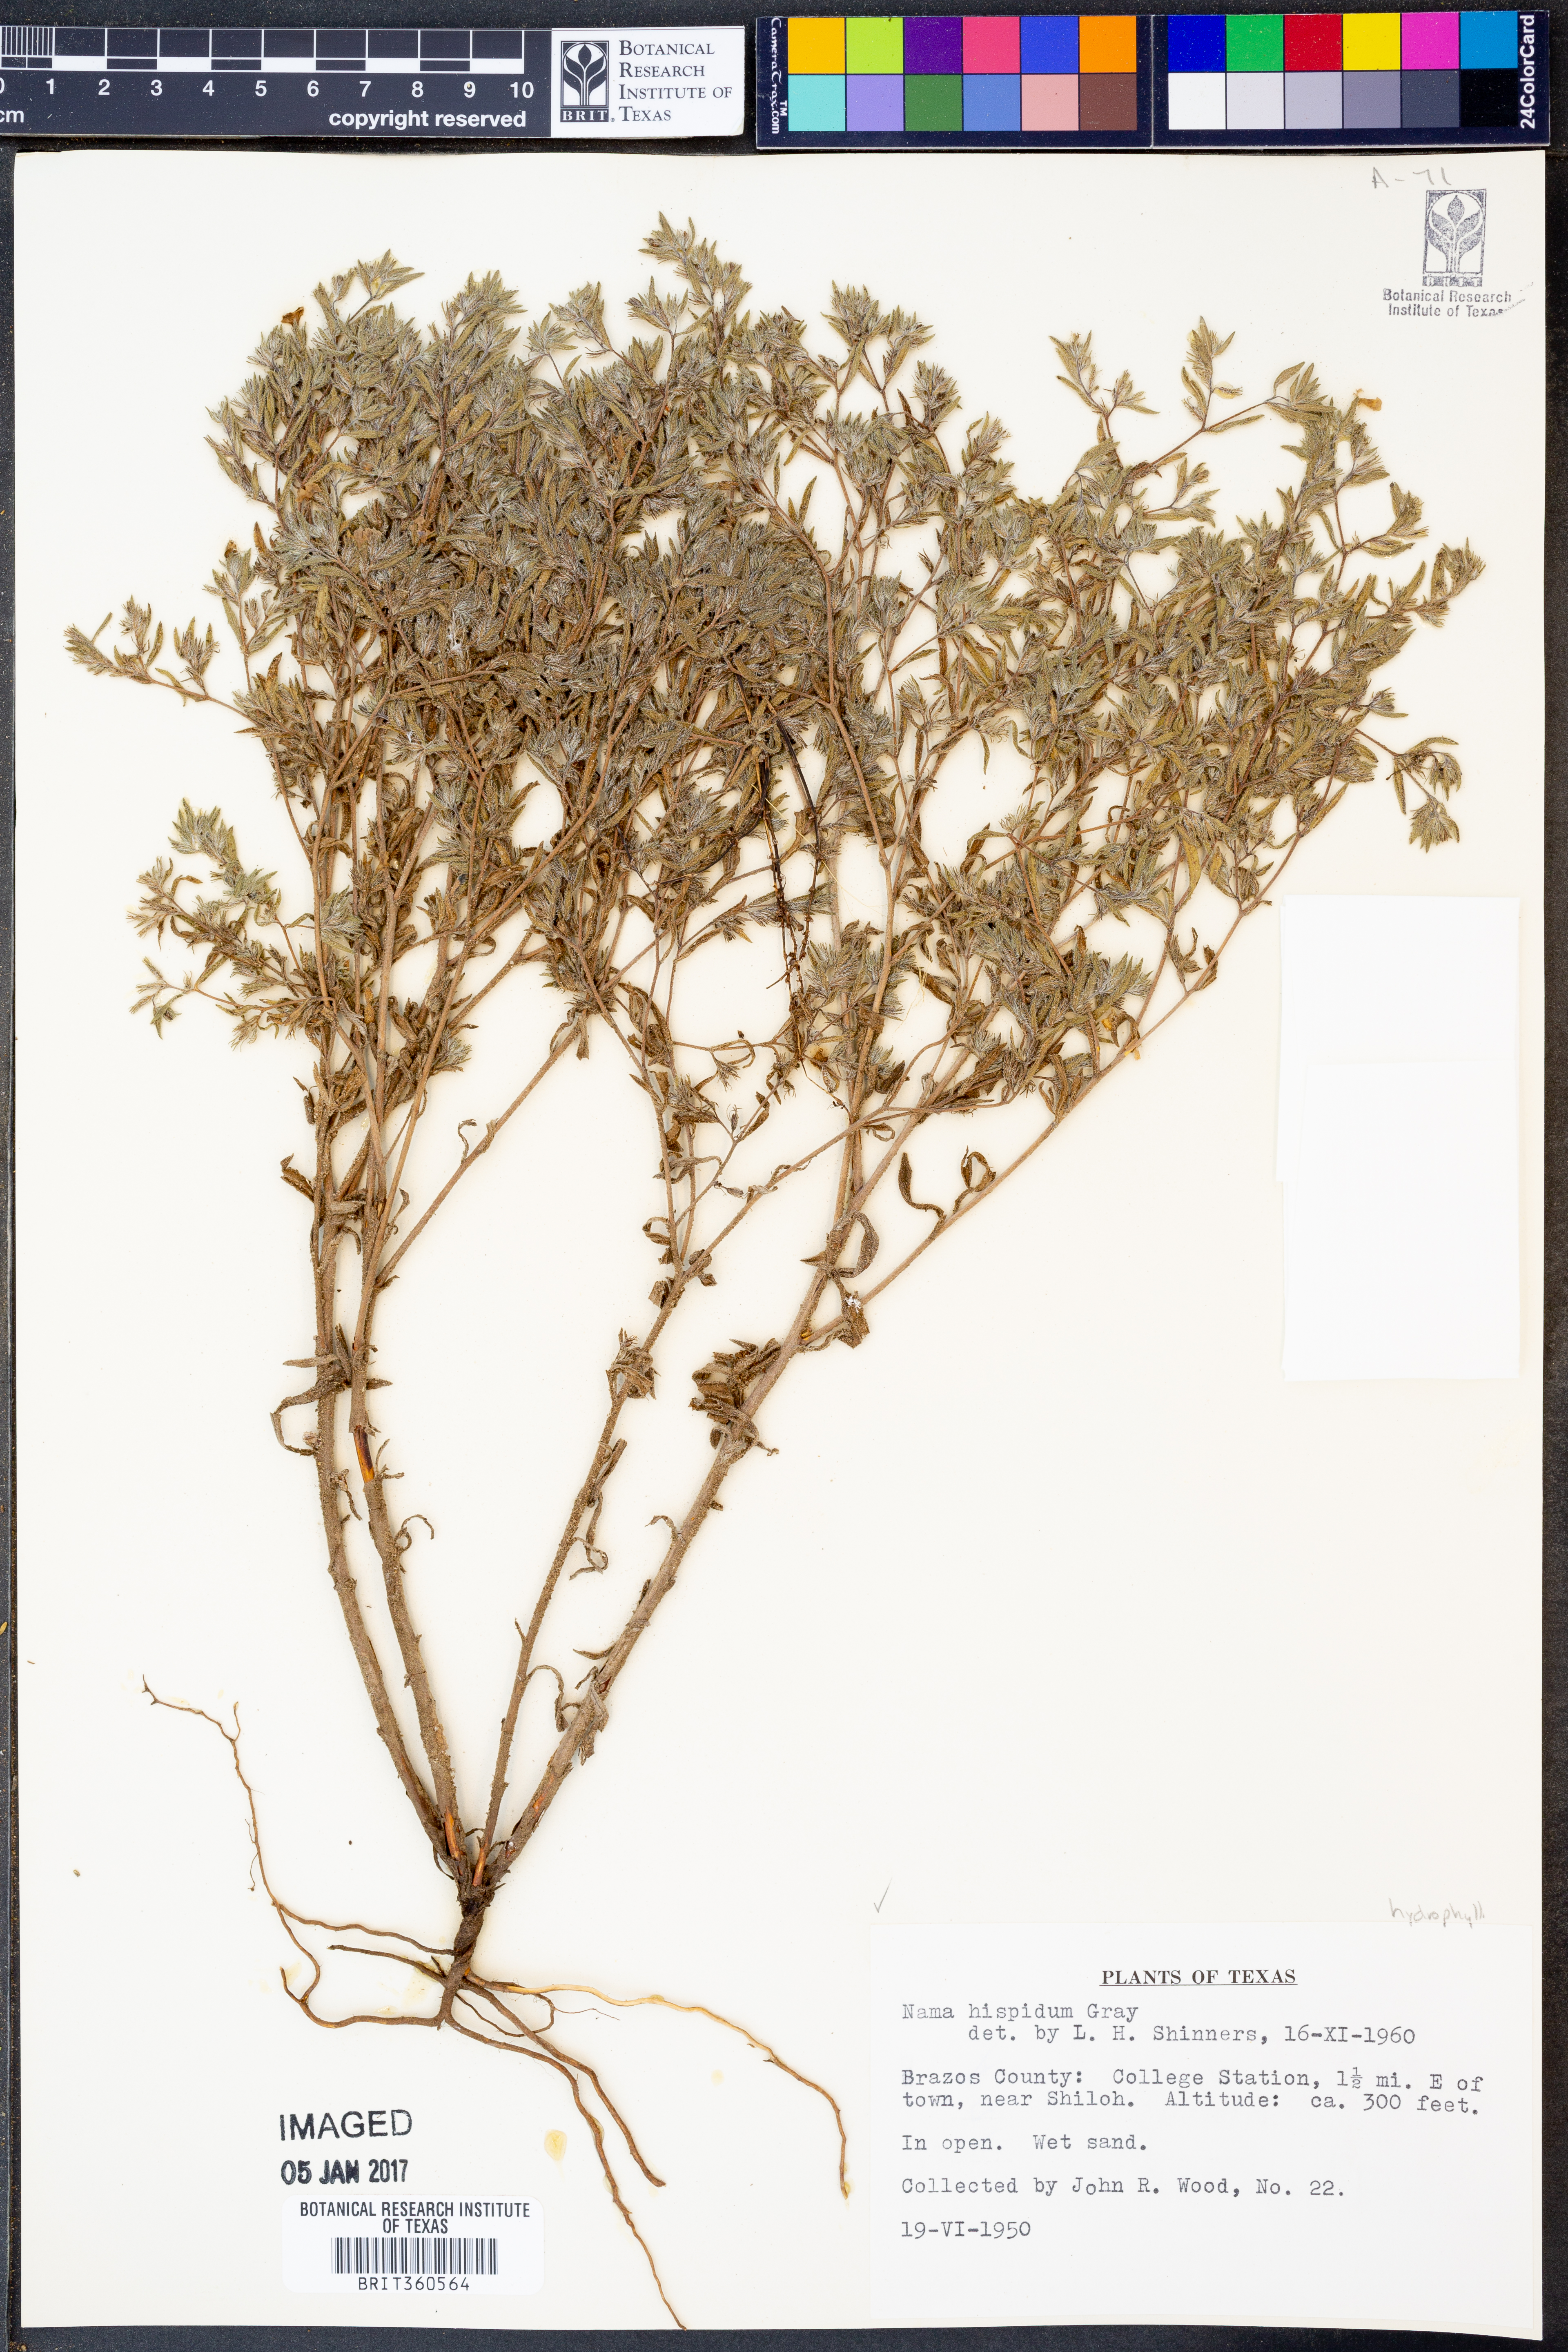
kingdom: Plantae
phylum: Tracheophyta
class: Magnoliopsida
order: Boraginales
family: Namaceae
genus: Nama
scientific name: Nama hispida
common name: Bristly nama
